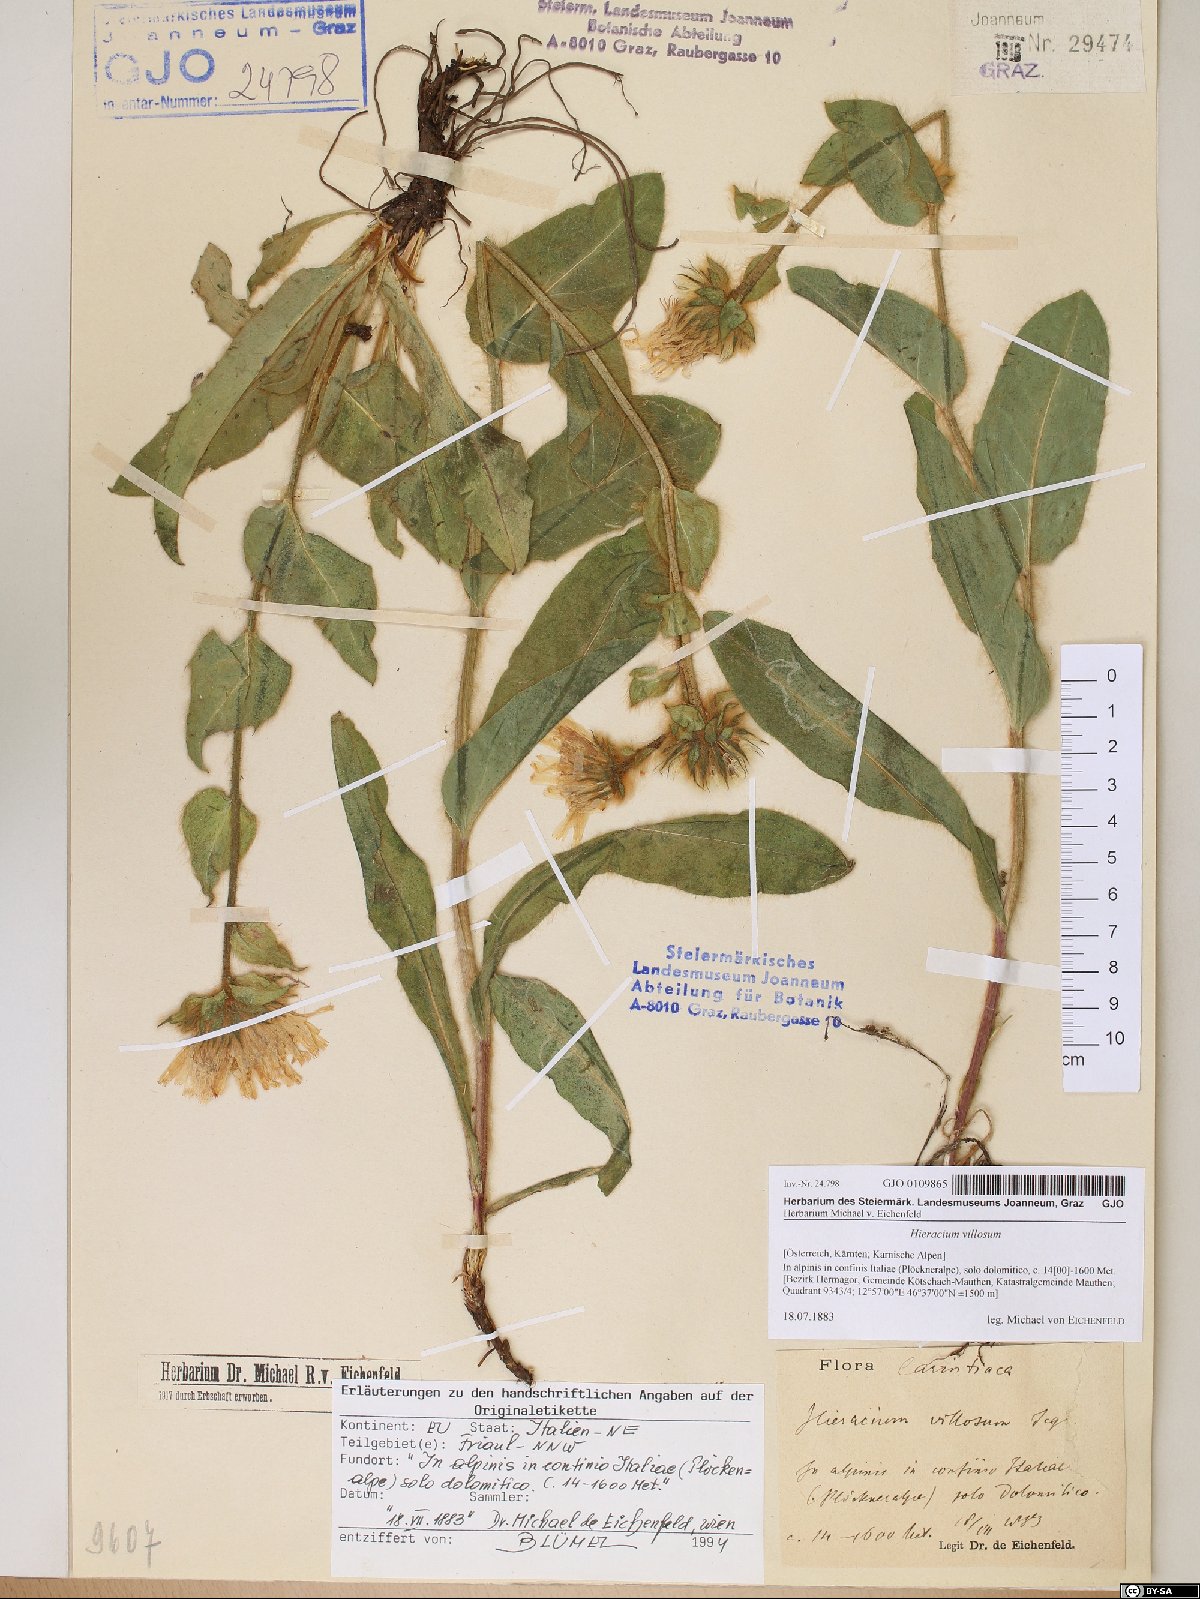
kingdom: Plantae
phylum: Tracheophyta
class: Magnoliopsida
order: Asterales
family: Asteraceae
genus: Hieracium
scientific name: Hieracium villosum
